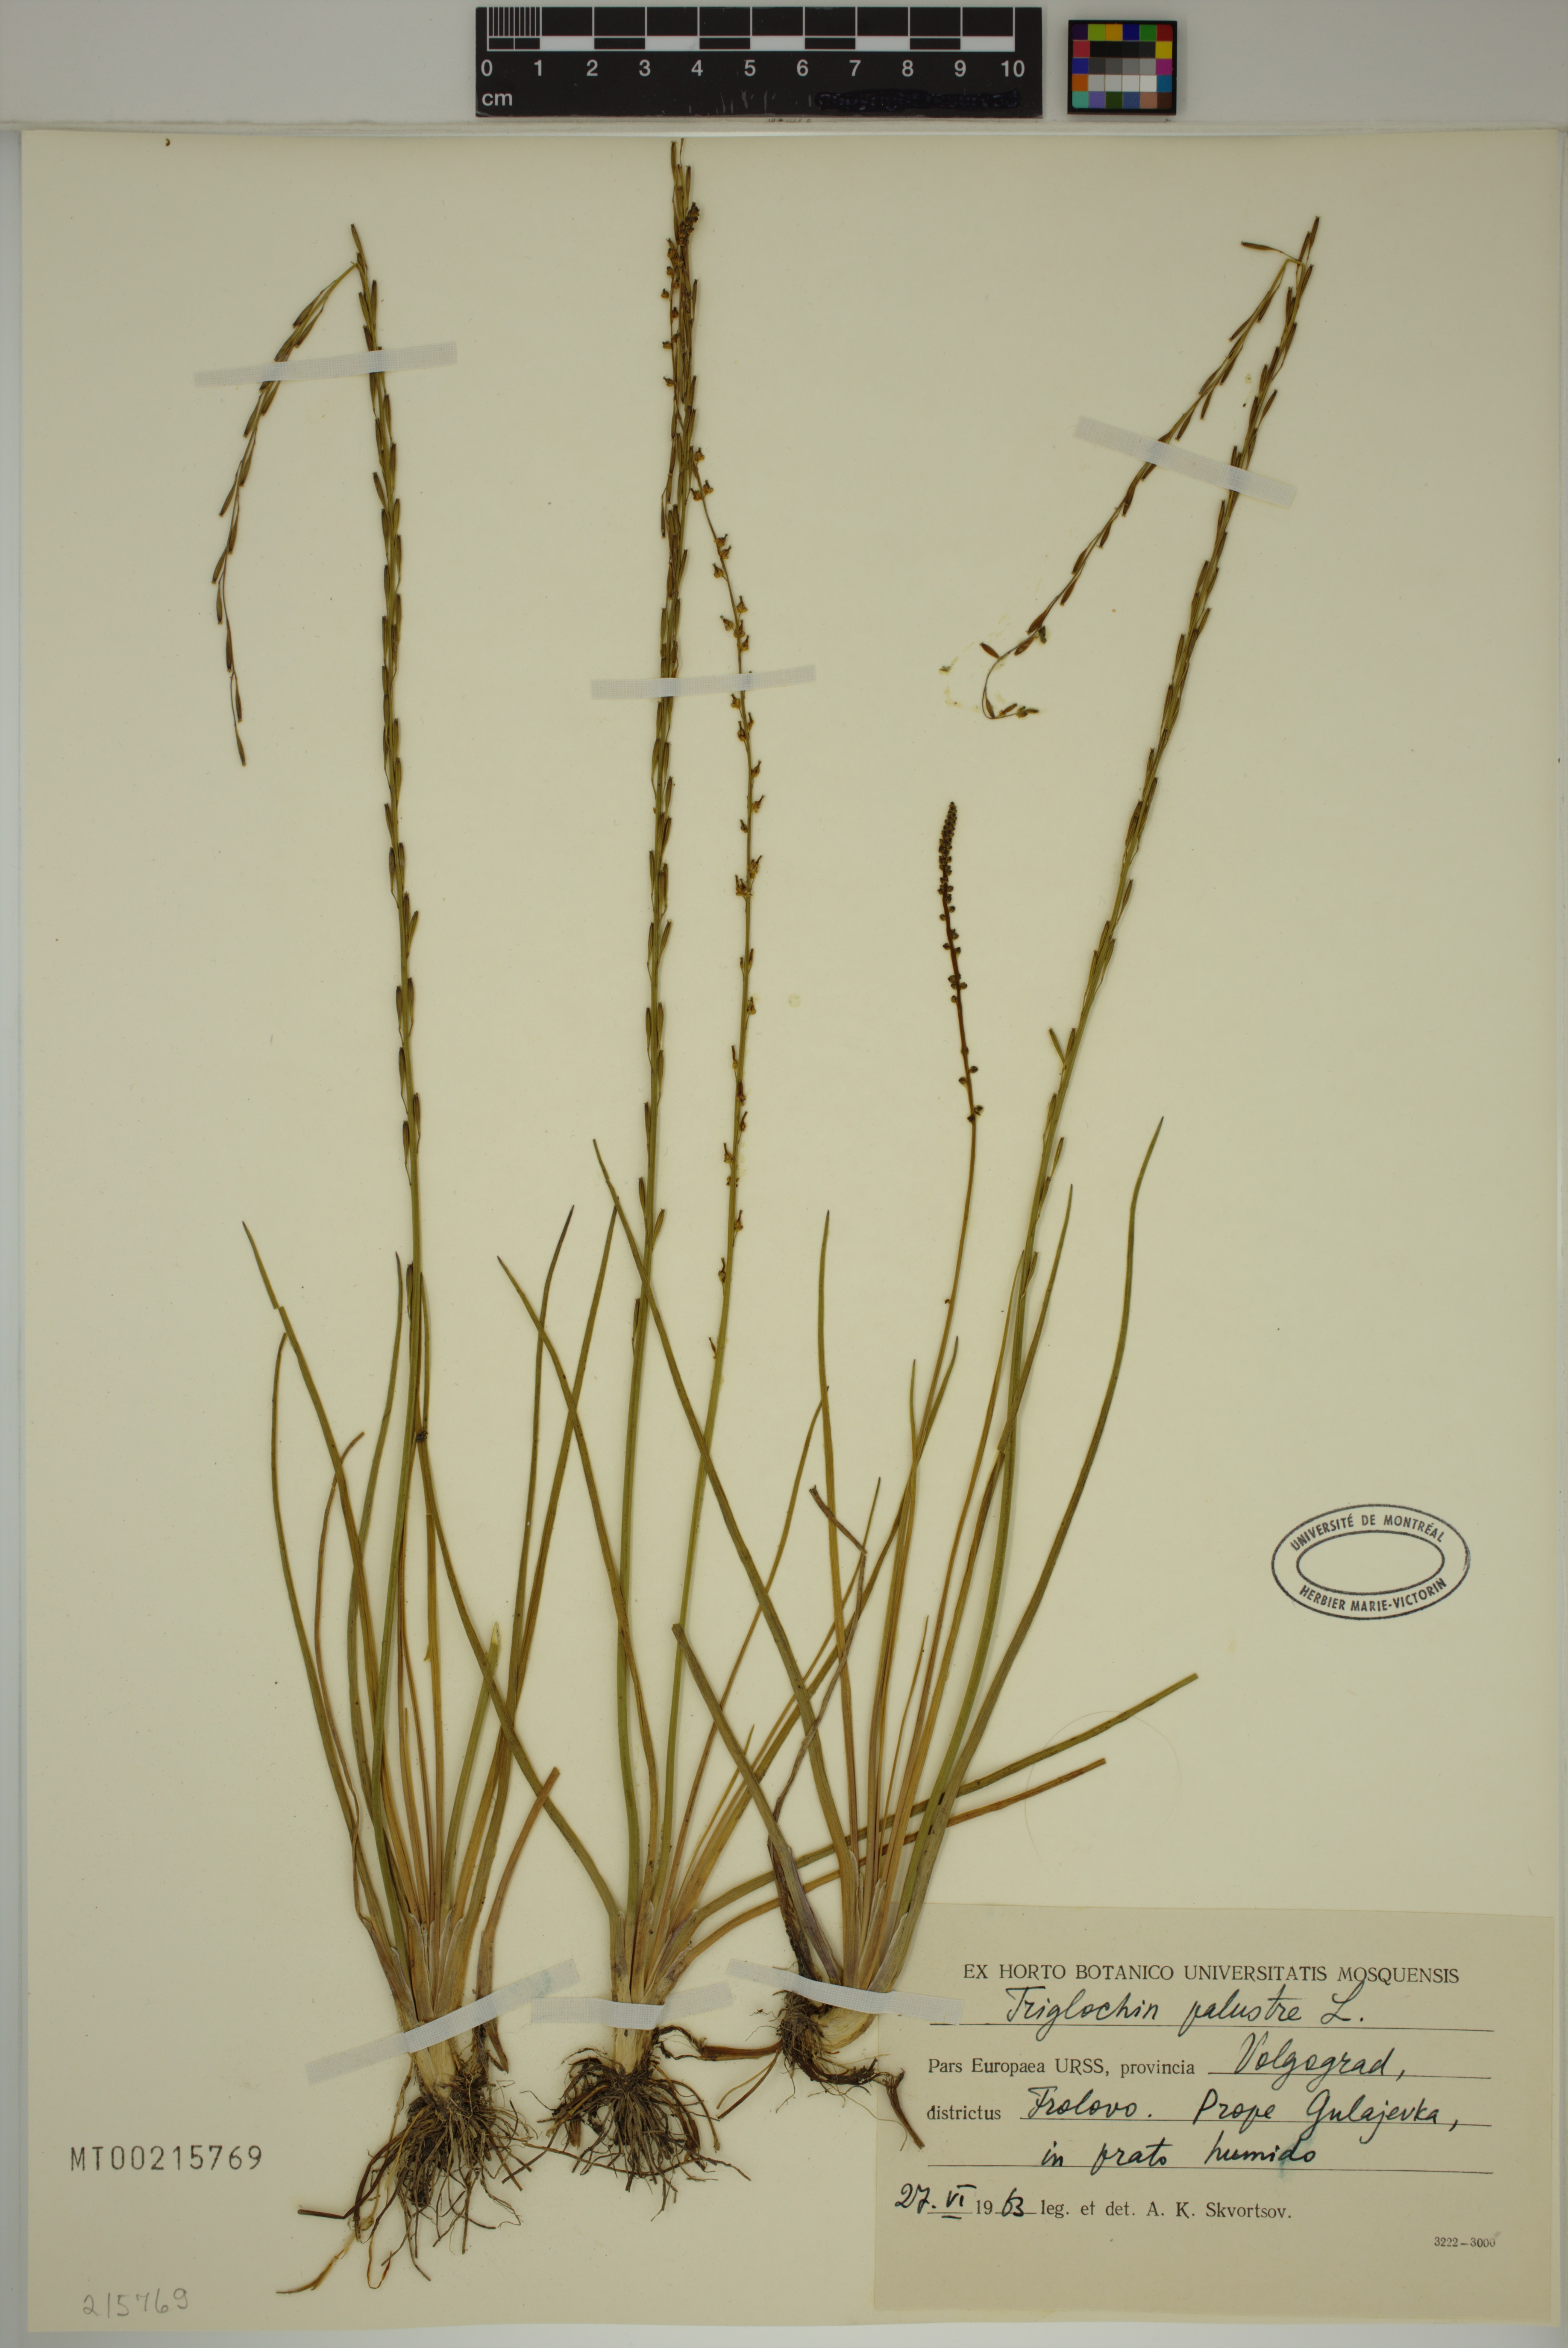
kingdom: Plantae
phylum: Tracheophyta
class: Liliopsida
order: Alismatales
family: Juncaginaceae
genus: Triglochin
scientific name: Triglochin palustris
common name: Marsh arrowgrass
